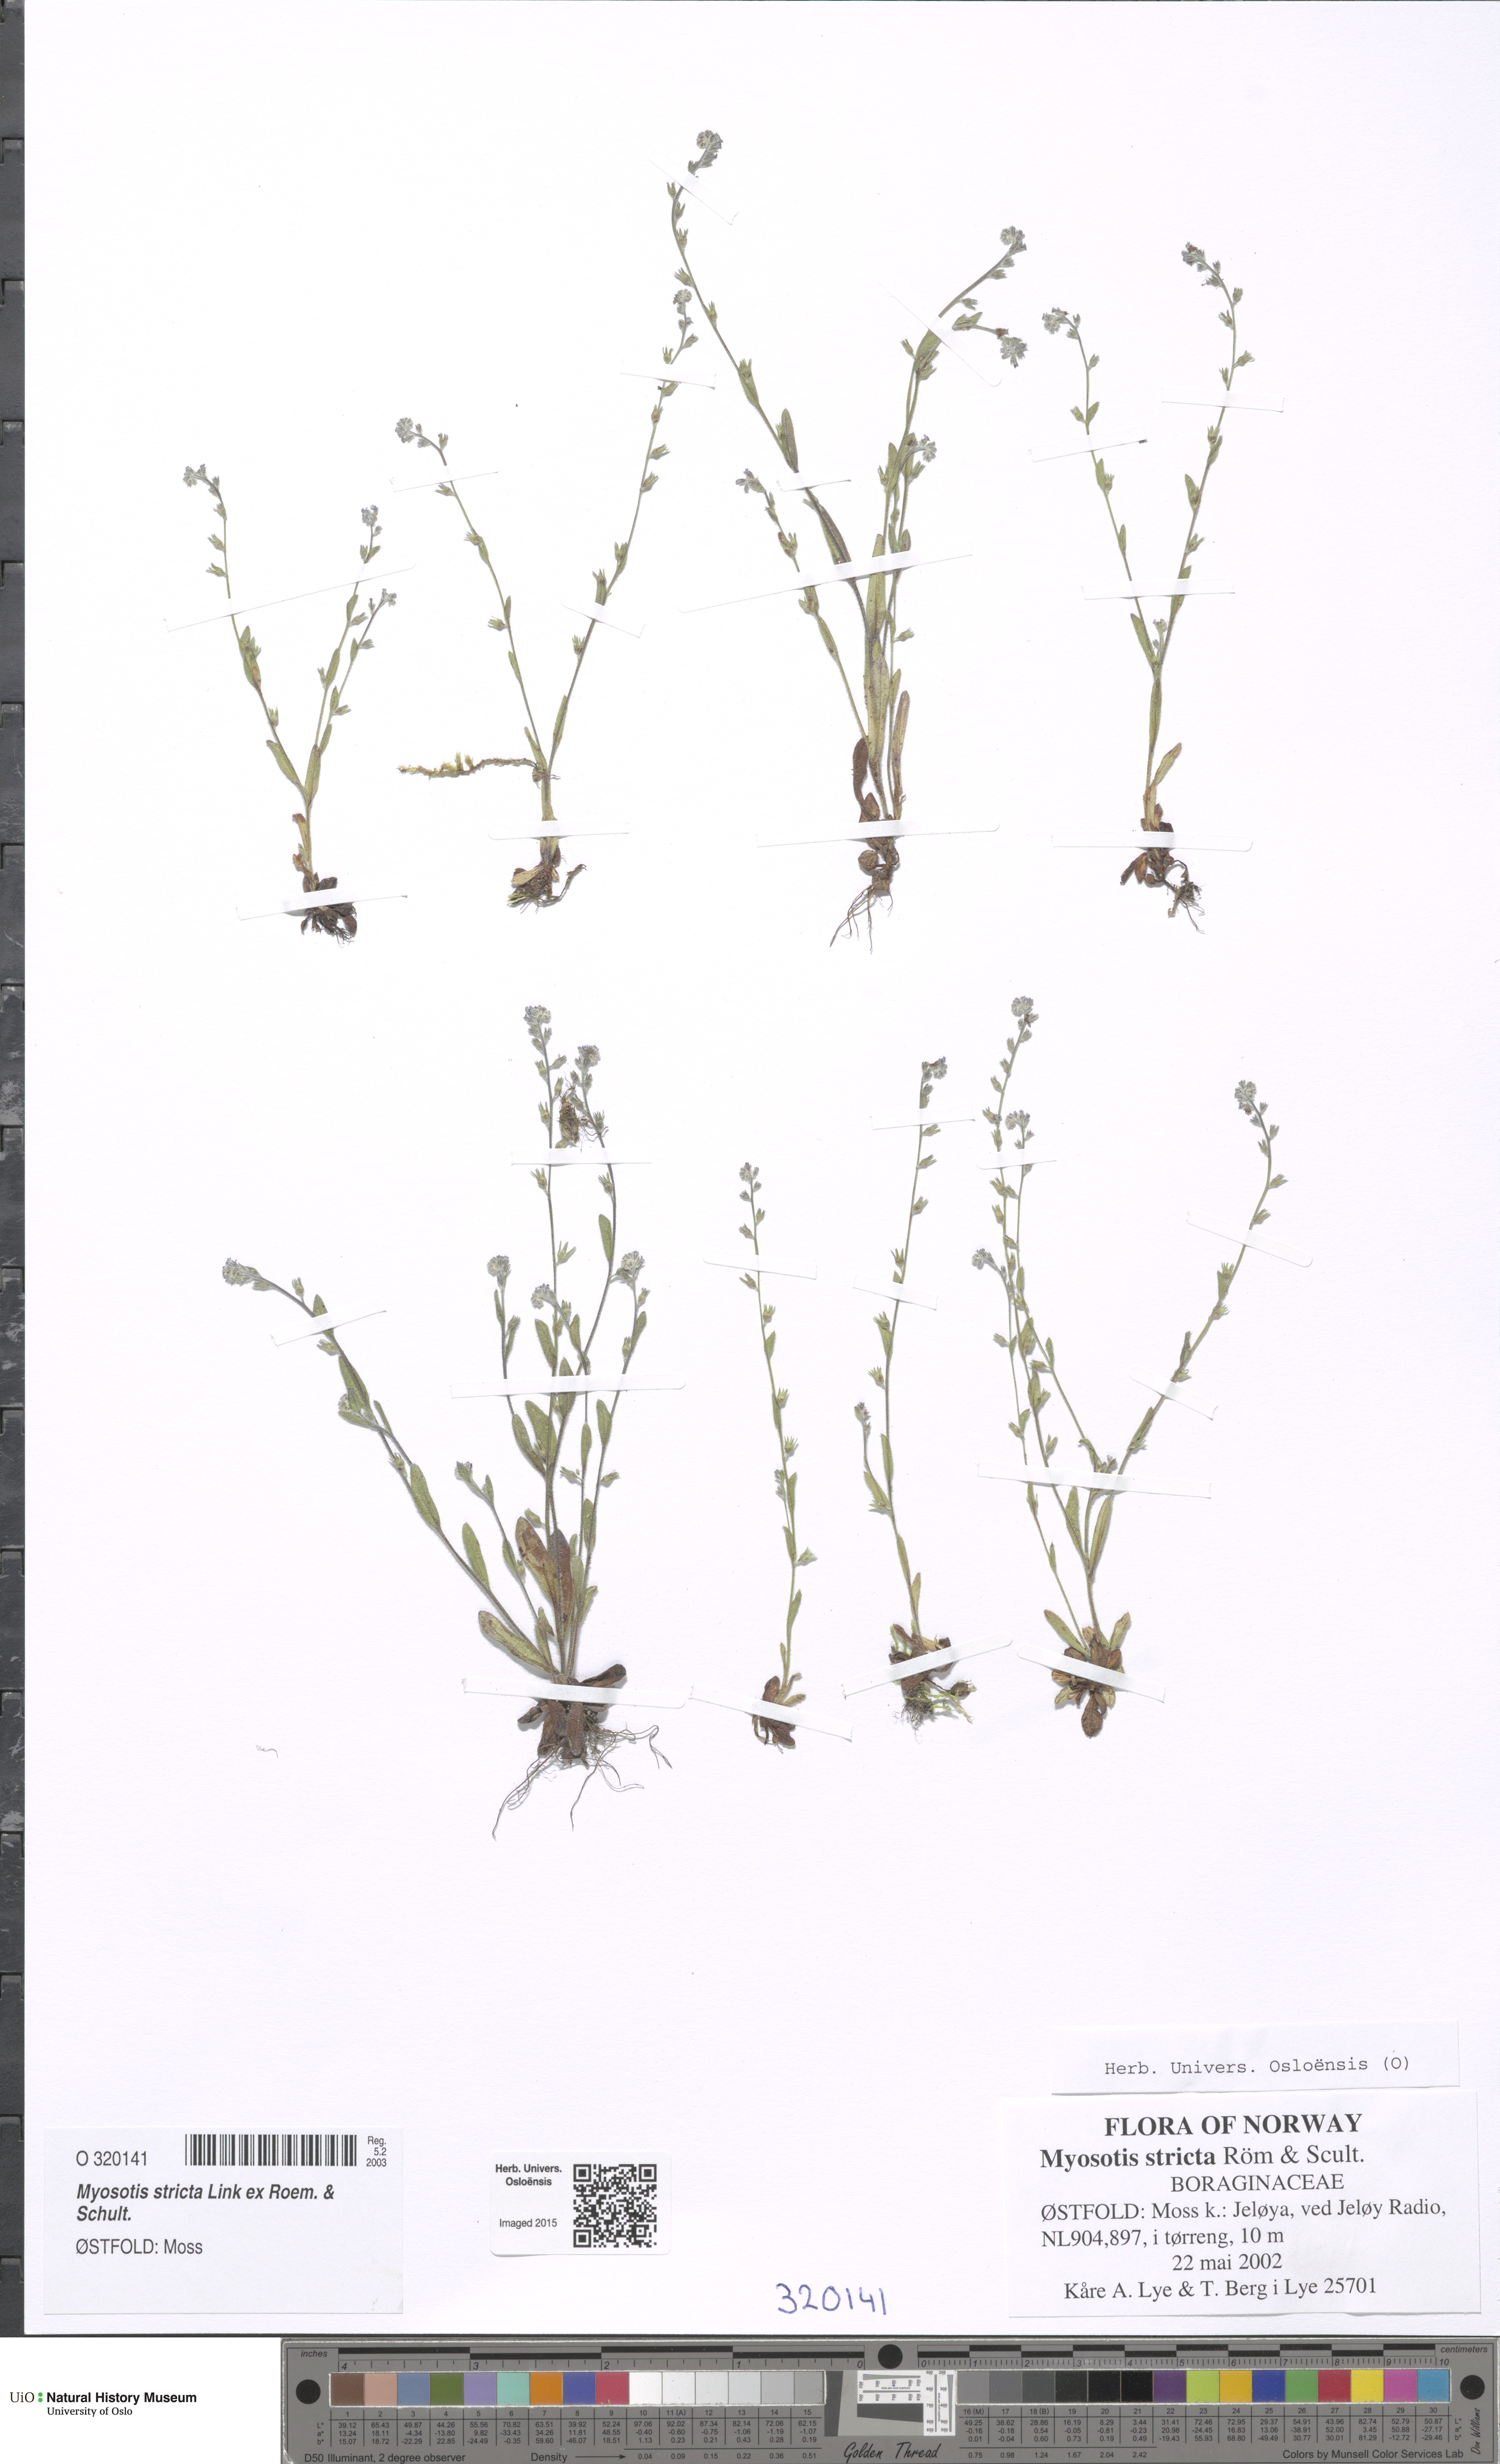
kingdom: Plantae
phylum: Tracheophyta
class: Magnoliopsida
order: Boraginales
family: Boraginaceae
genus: Myosotis
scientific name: Myosotis stricta
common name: Strict forget-me-not
